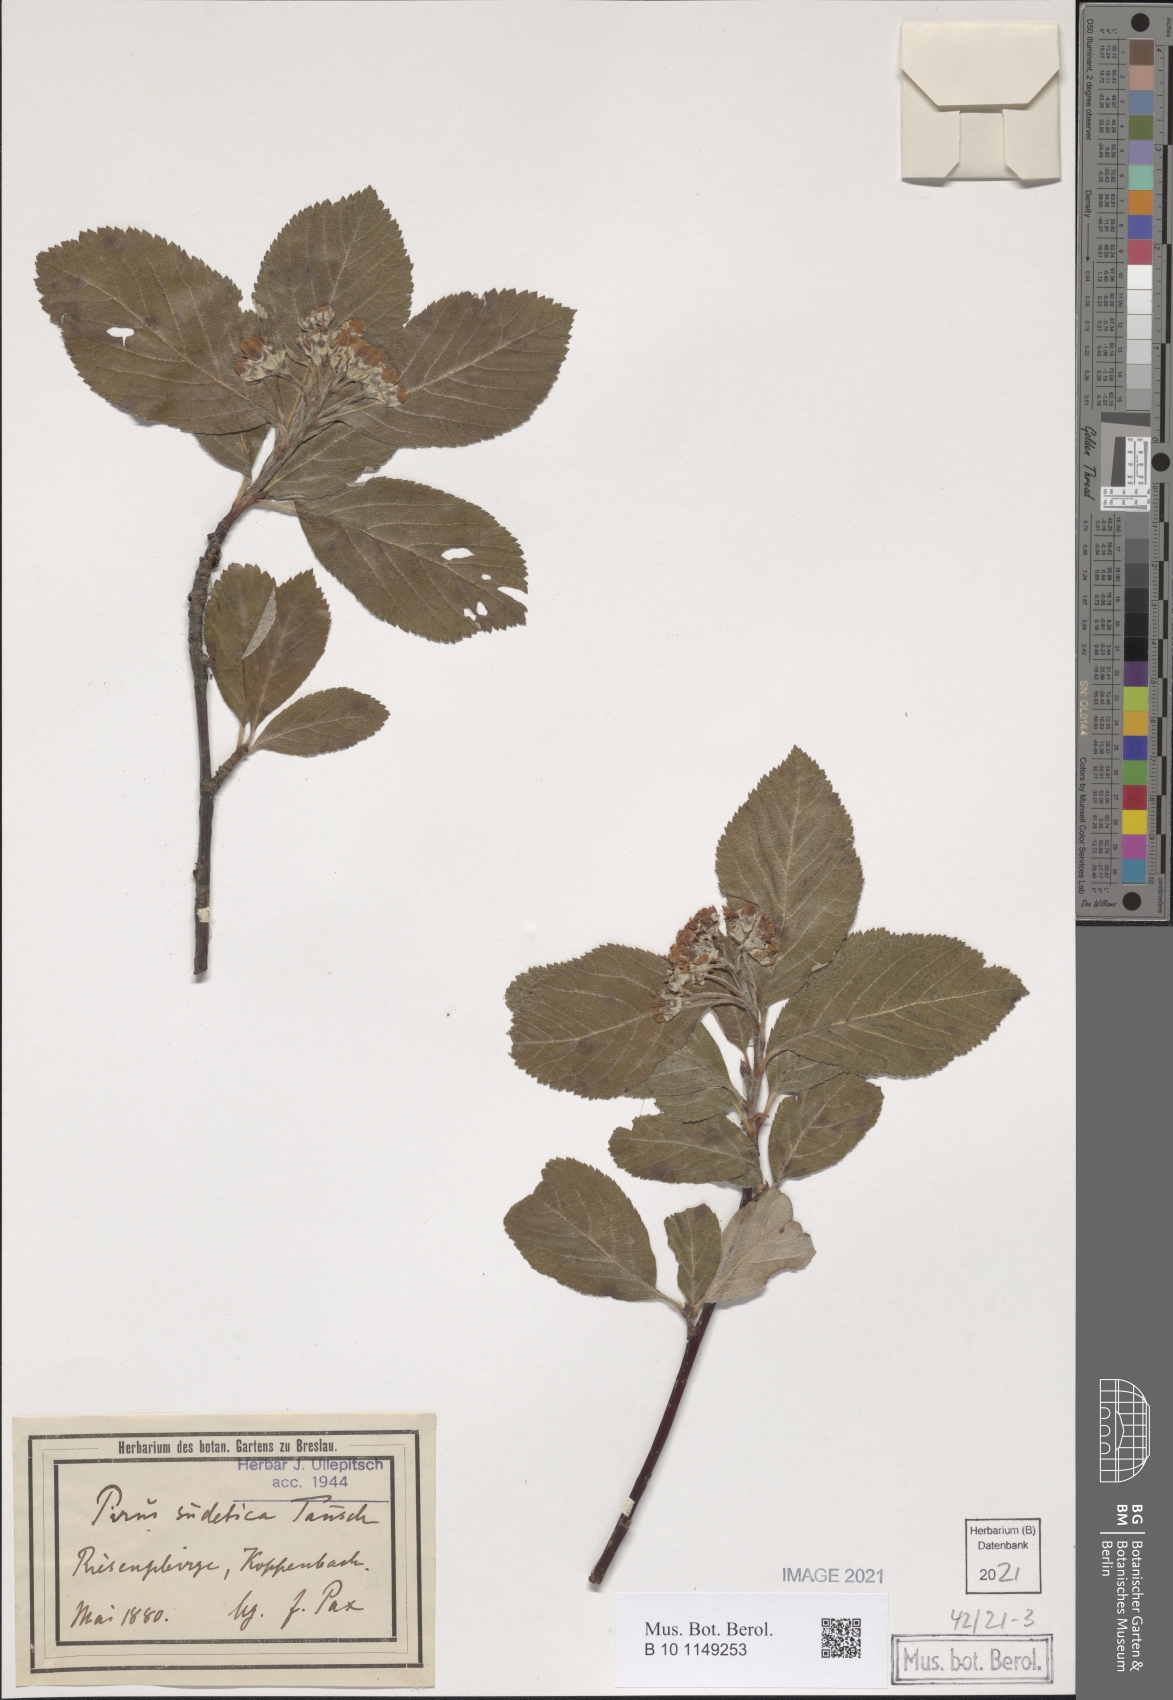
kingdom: Plantae
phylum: Tracheophyta
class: Magnoliopsida
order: Rosales
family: Rosaceae
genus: Sorbus
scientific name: Sorbus sudetica
